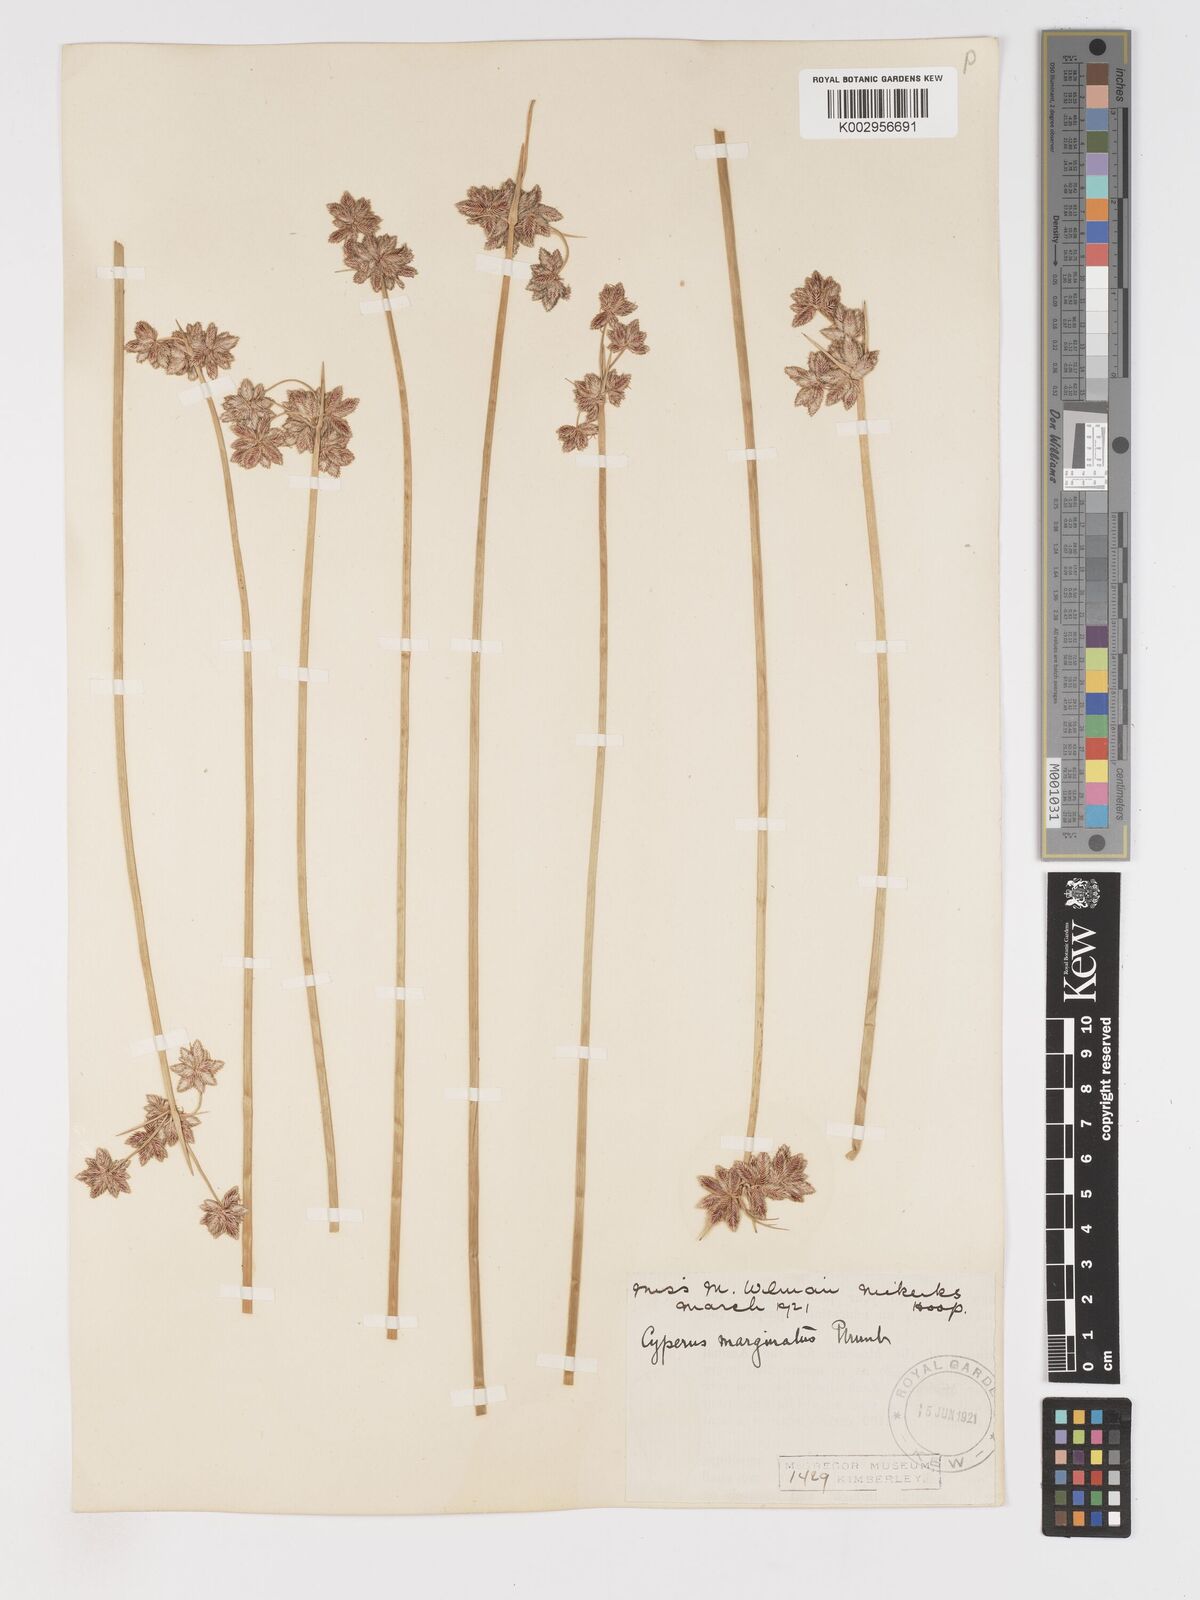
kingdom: Plantae
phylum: Tracheophyta
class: Liliopsida
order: Poales
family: Cyperaceae
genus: Cyperus
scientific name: Cyperus marginatus
